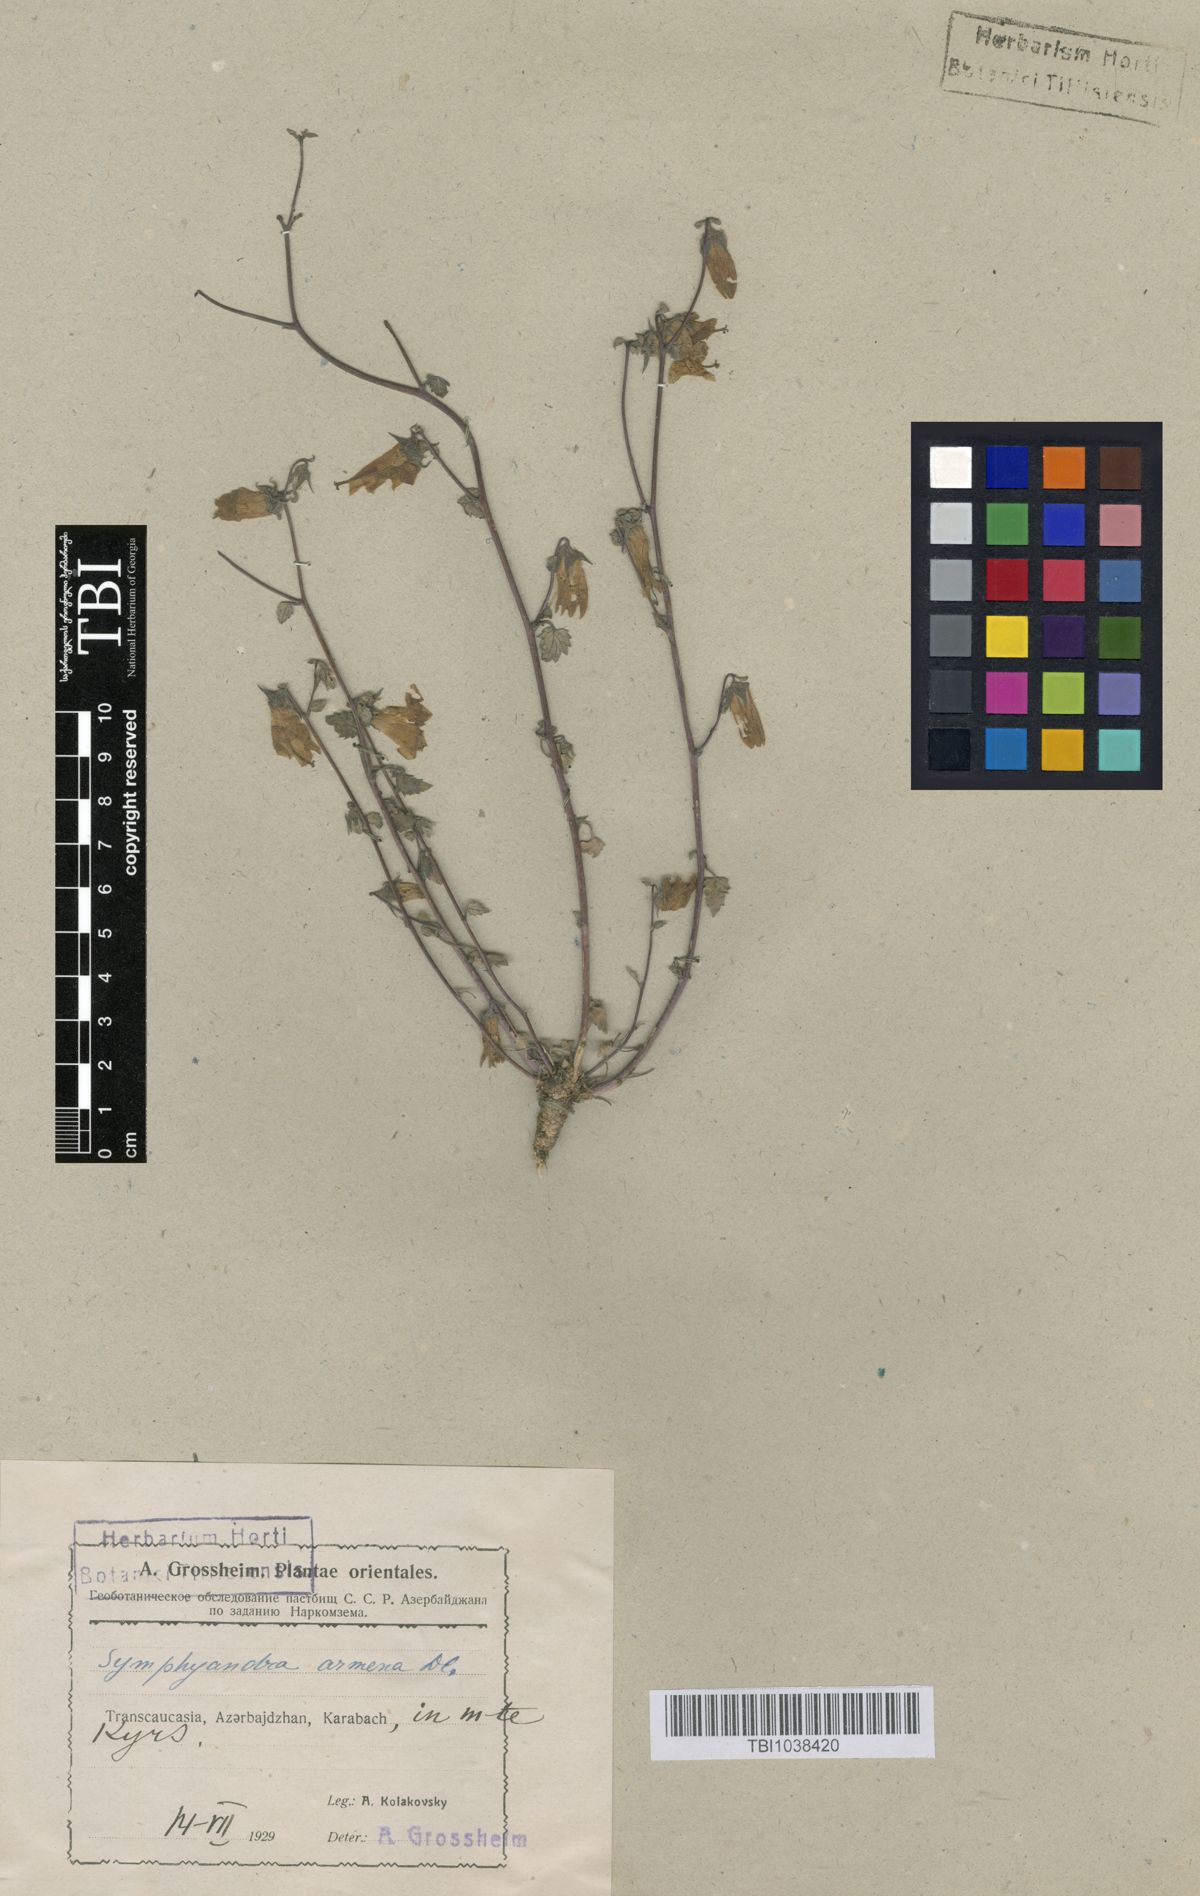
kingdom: Plantae
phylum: Tracheophyta
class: Magnoliopsida
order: Asterales
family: Campanulaceae
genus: Campanula
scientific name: Campanula armena
